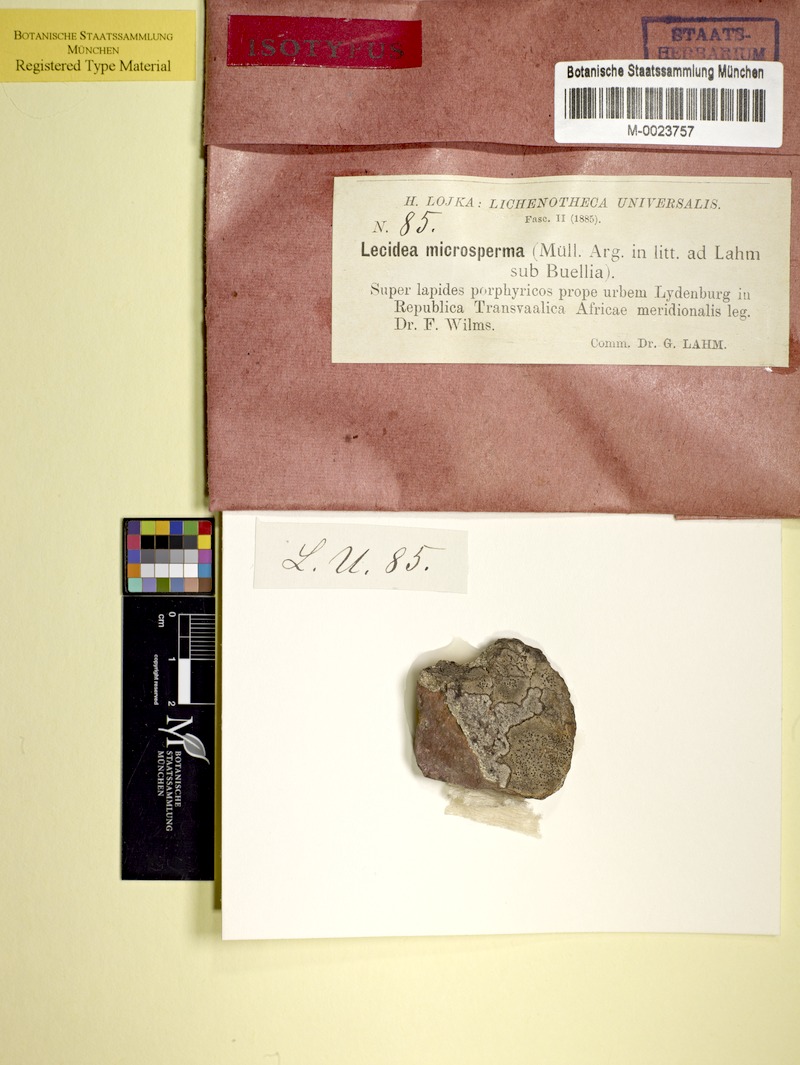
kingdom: Fungi
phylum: Ascomycota
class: Dothideomycetes
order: Abrothallales
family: Abrothallaceae
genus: Abrothallus
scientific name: Abrothallus microspermus
